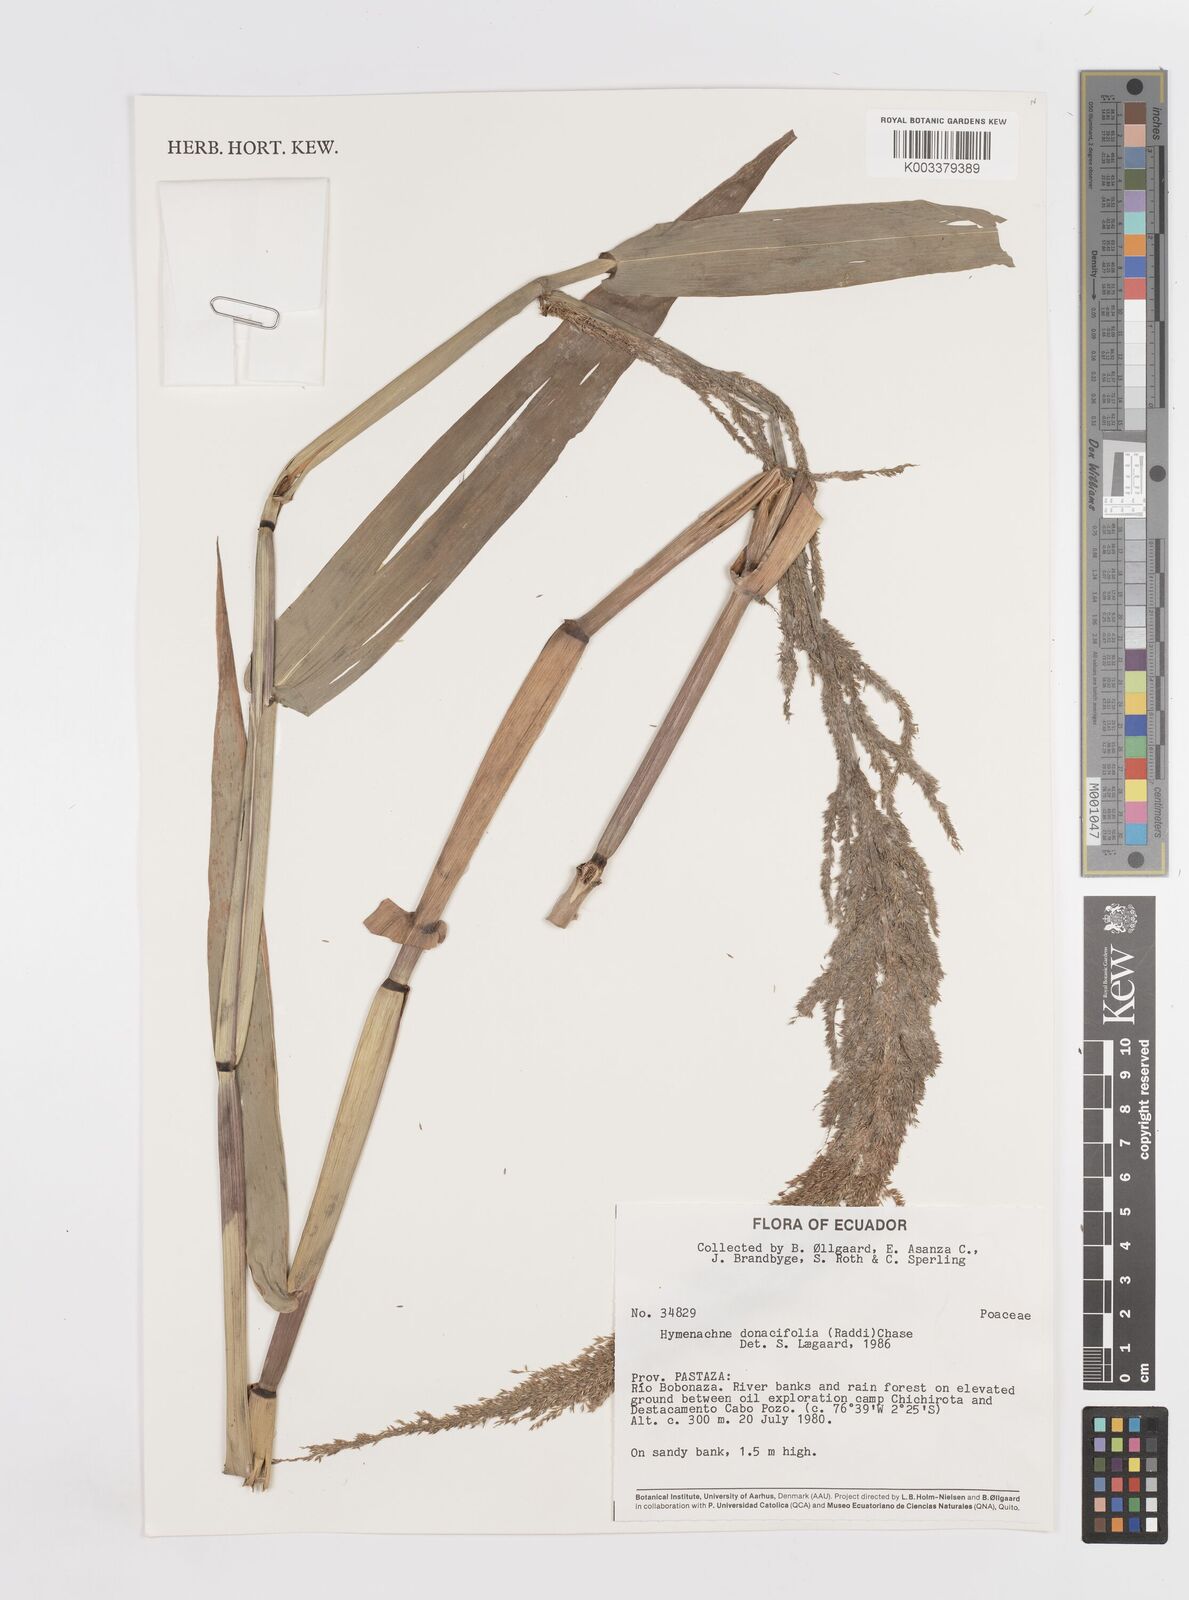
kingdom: Plantae
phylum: Tracheophyta
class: Liliopsida
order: Poales
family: Poaceae
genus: Hymenachne
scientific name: Hymenachne donacifolia
